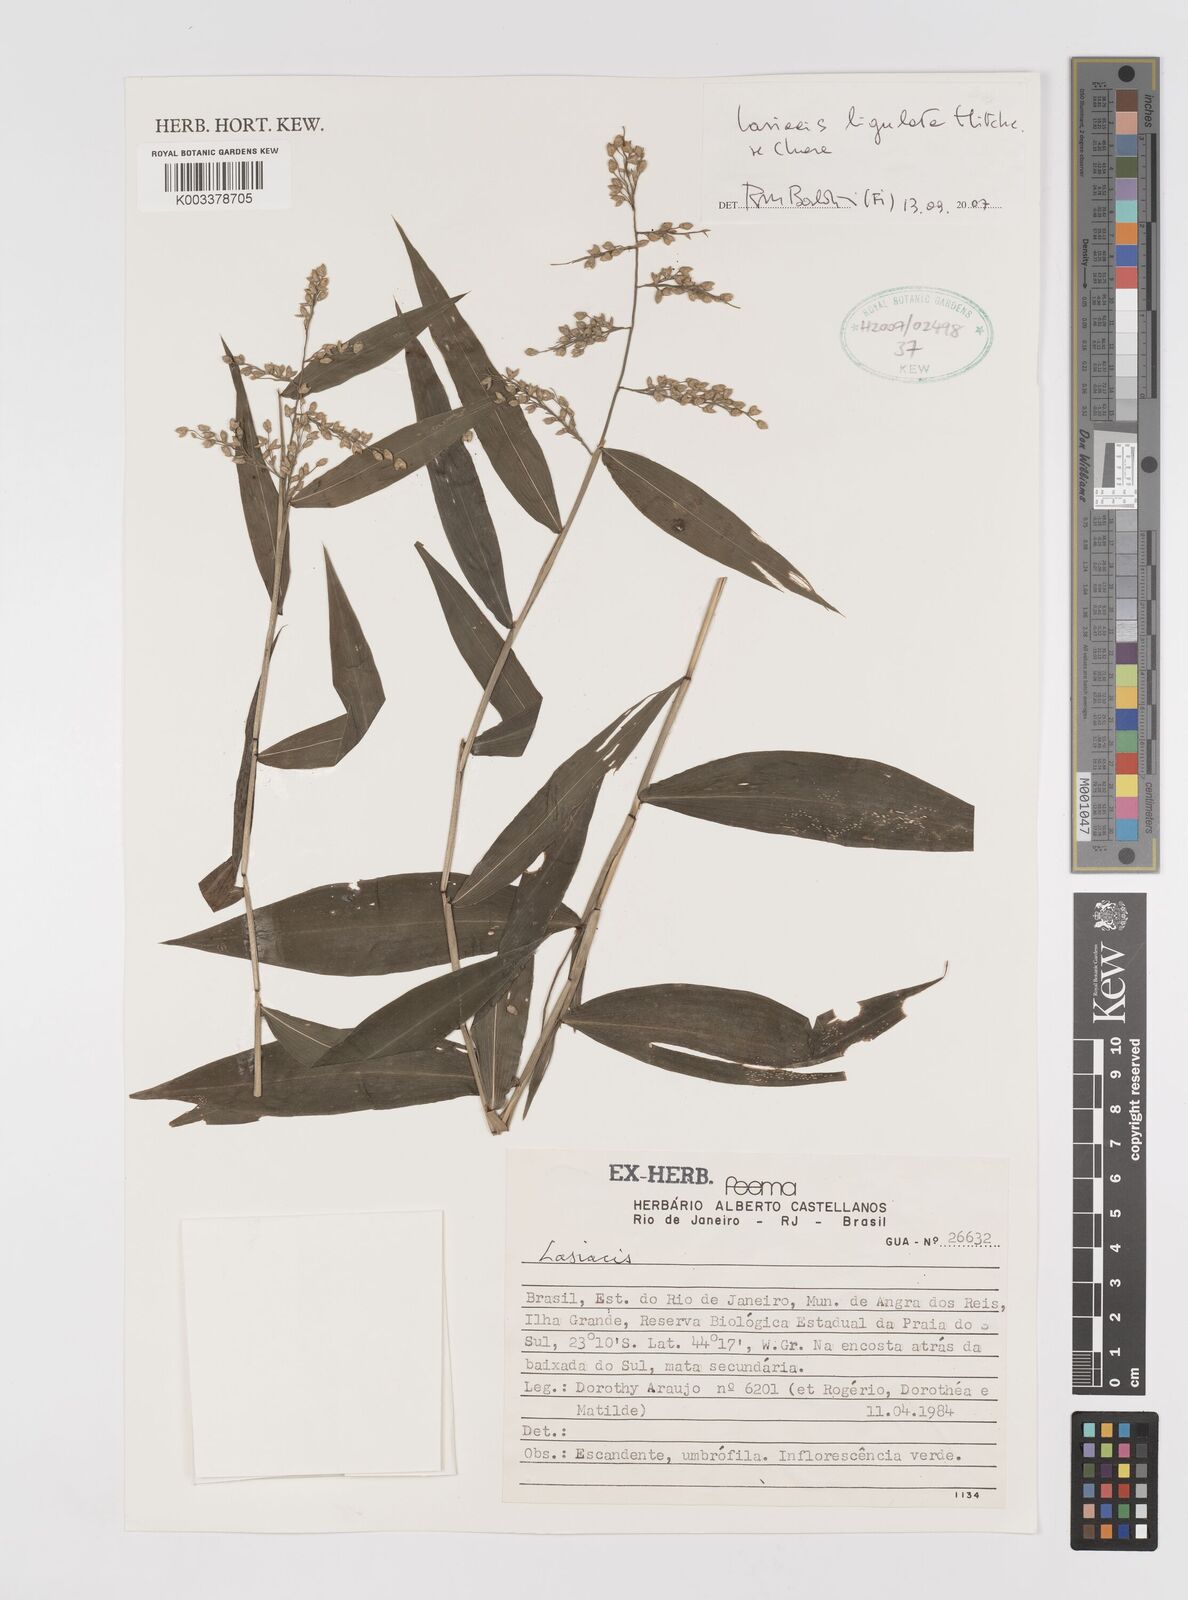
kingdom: Plantae
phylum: Tracheophyta
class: Liliopsida
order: Poales
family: Poaceae
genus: Lasiacis
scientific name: Lasiacis ligulata
